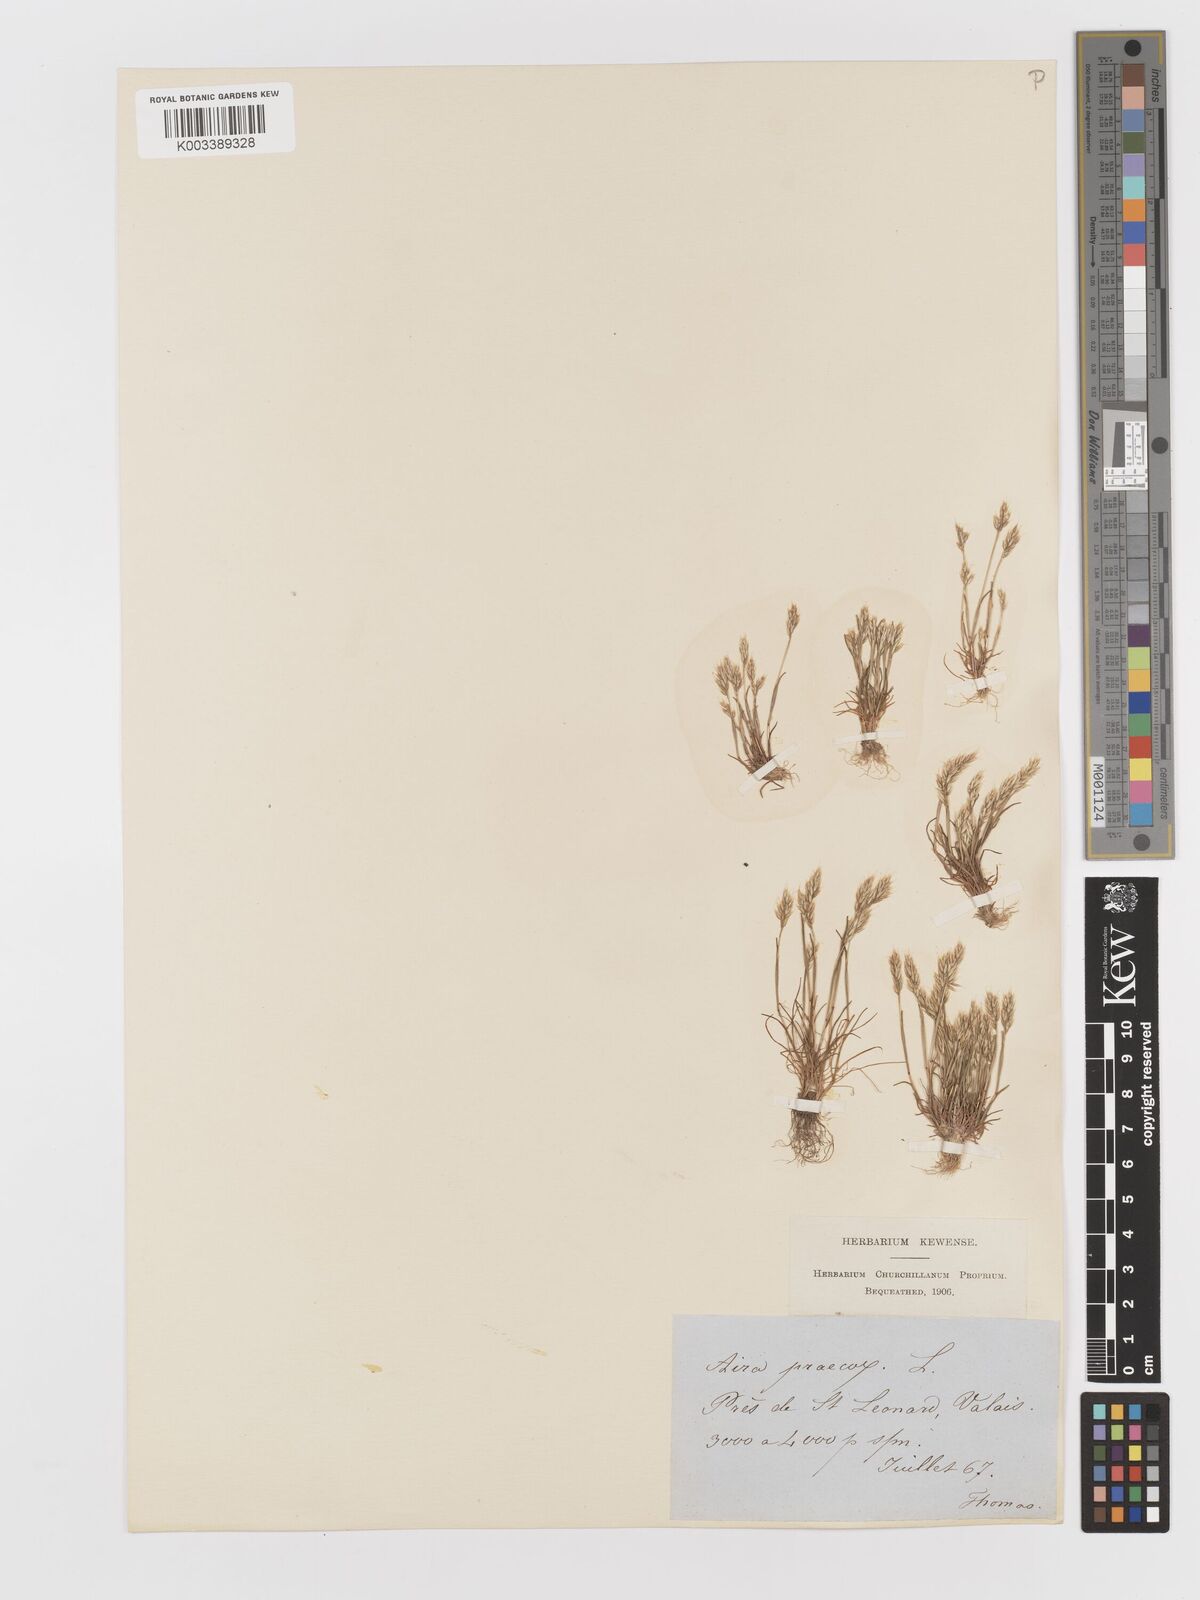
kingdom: Plantae
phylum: Tracheophyta
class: Liliopsida
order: Poales
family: Poaceae
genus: Aira
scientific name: Aira praecox
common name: Early hair-grass
